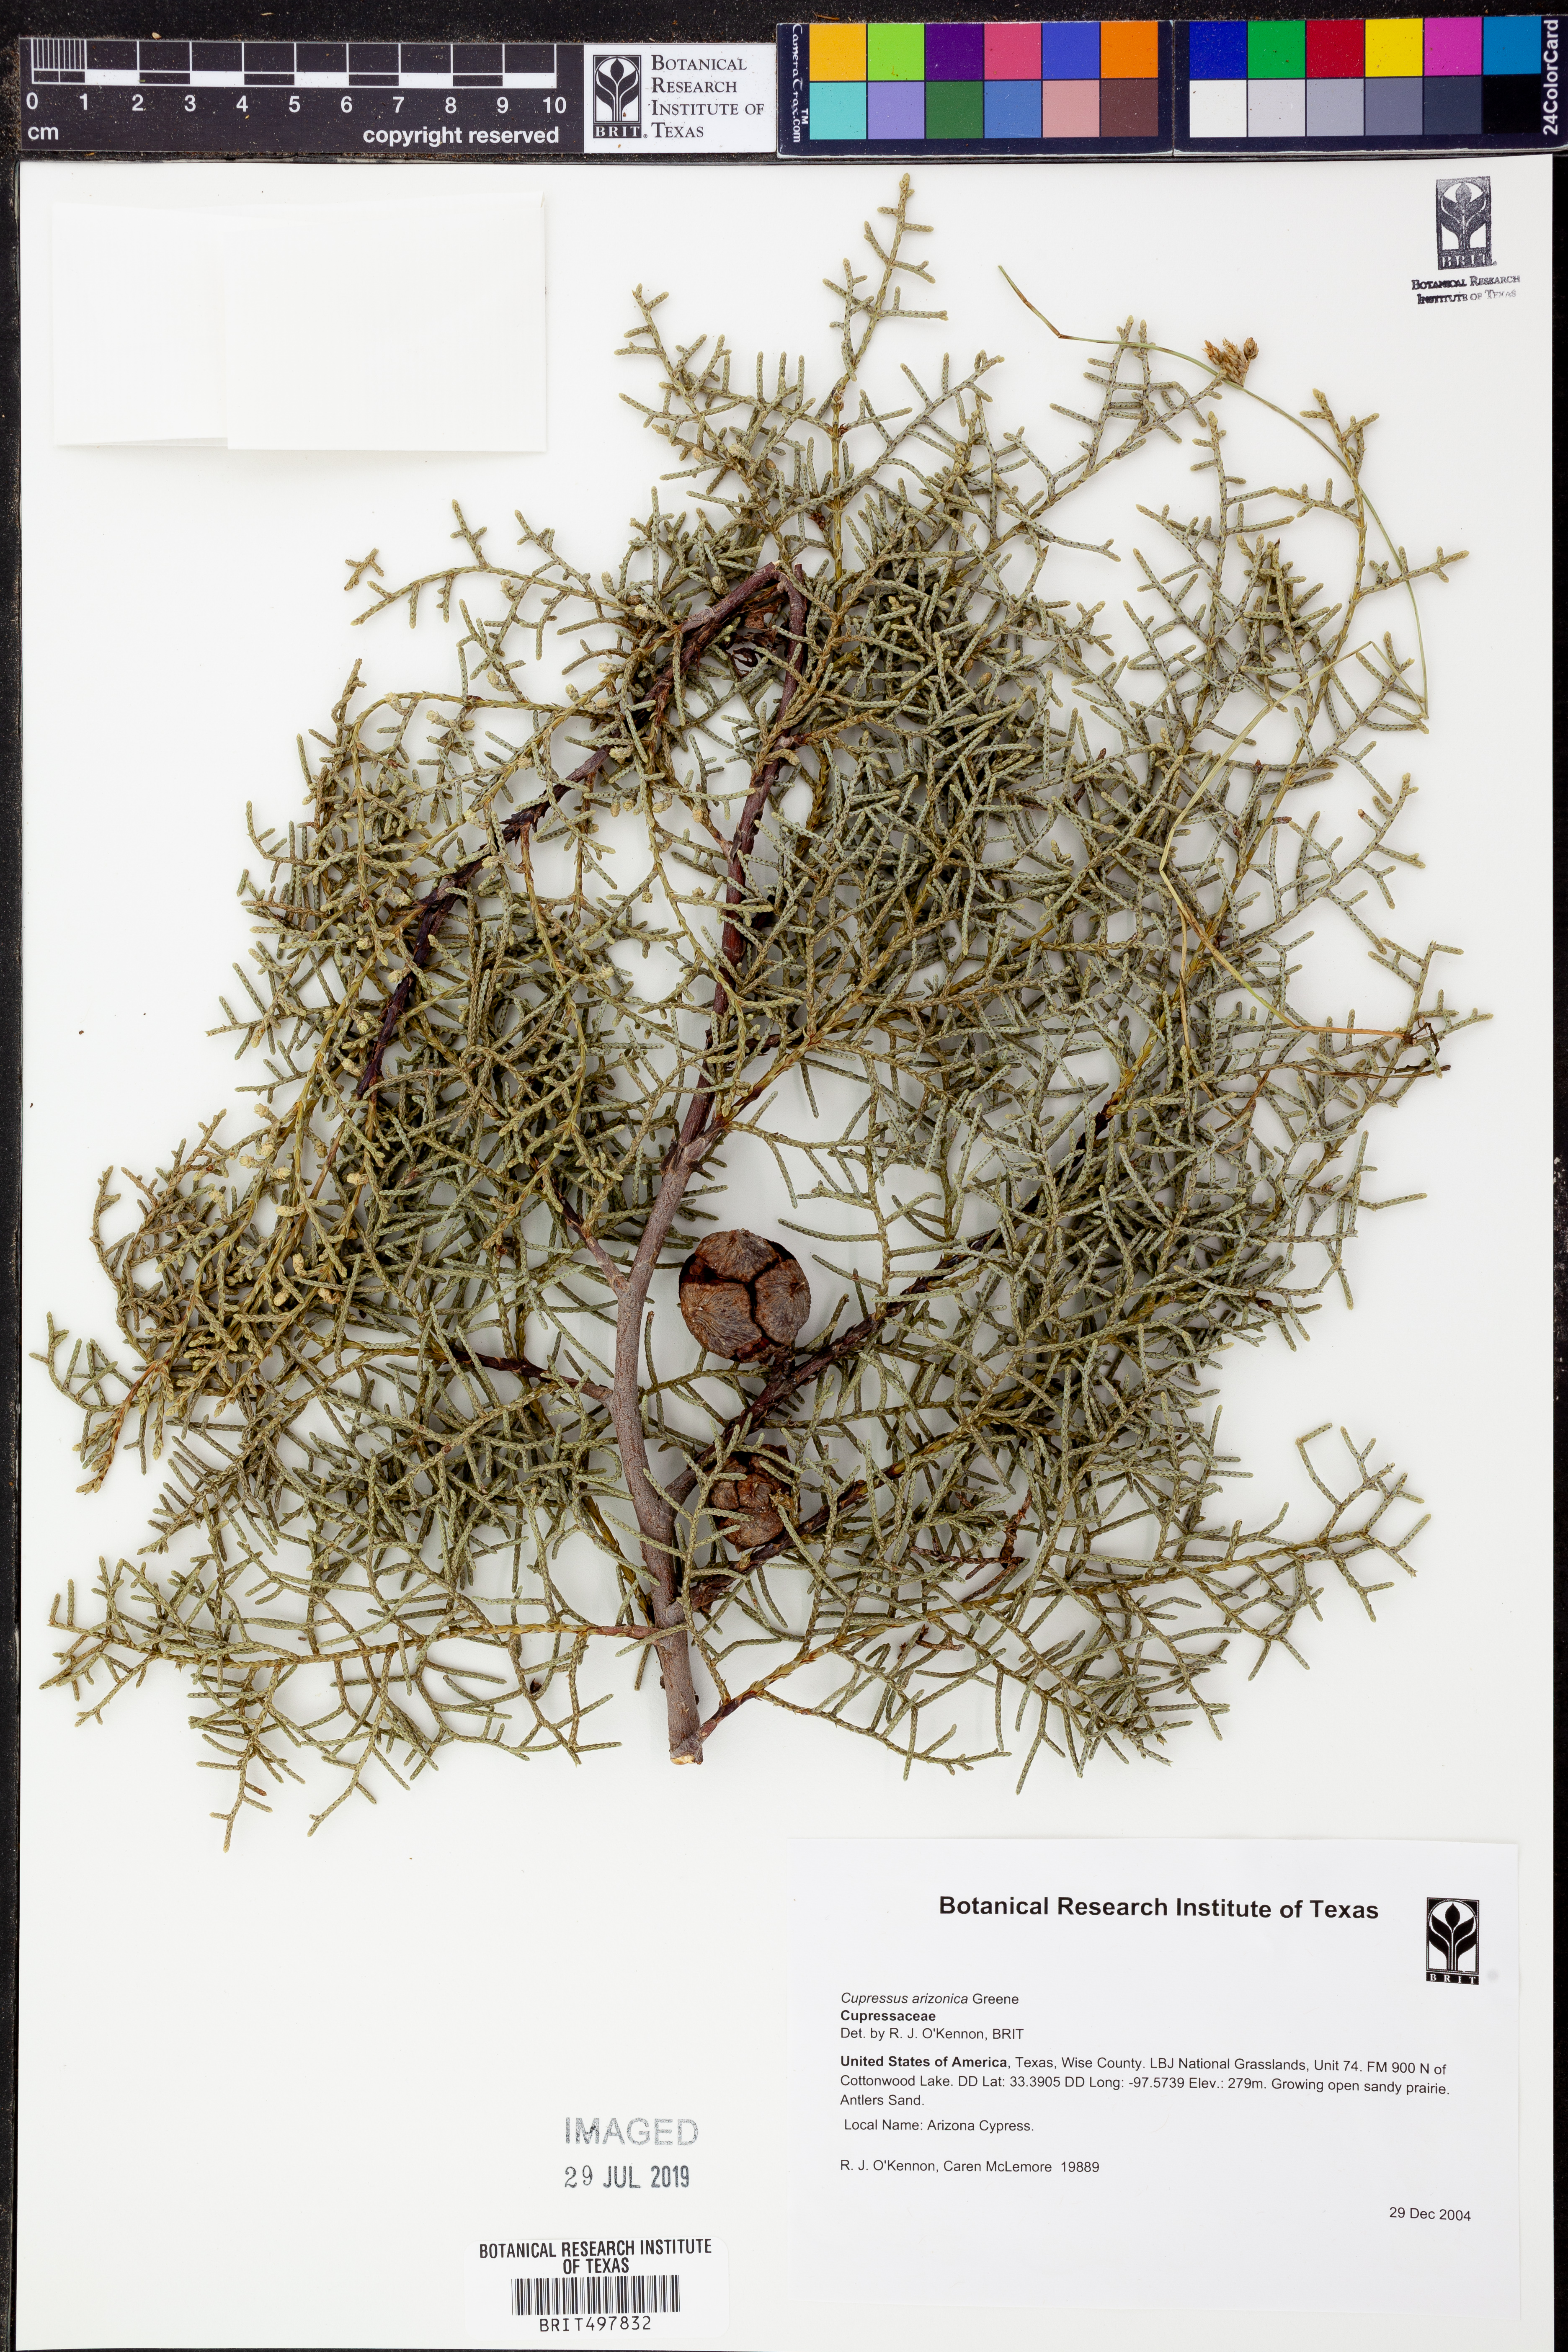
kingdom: Plantae
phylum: Tracheophyta
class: Pinopsida
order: Pinales
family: Cupressaceae
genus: Cupressus
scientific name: Cupressus arizonica
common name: Arizona cypress
